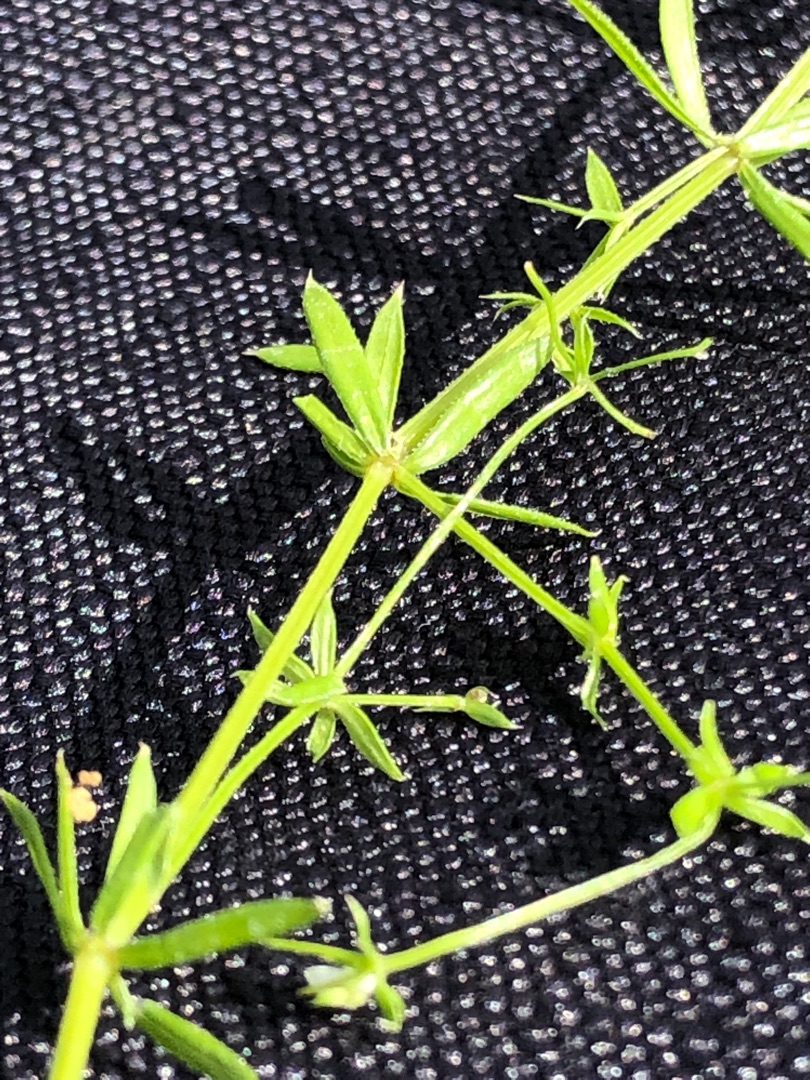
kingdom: Plantae
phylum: Tracheophyta
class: Magnoliopsida
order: Gentianales
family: Rubiaceae
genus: Galium
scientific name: Galium uliginosum
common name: Sump-snerre
